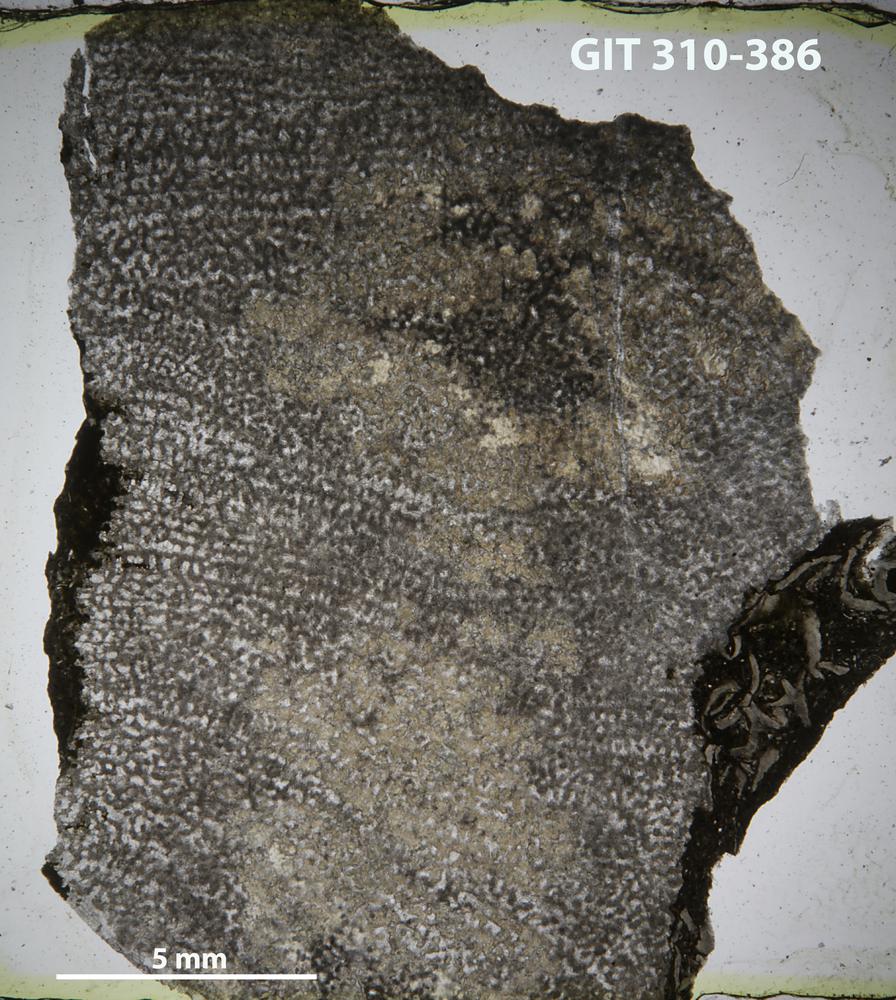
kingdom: Animalia
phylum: Porifera
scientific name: Porifera
